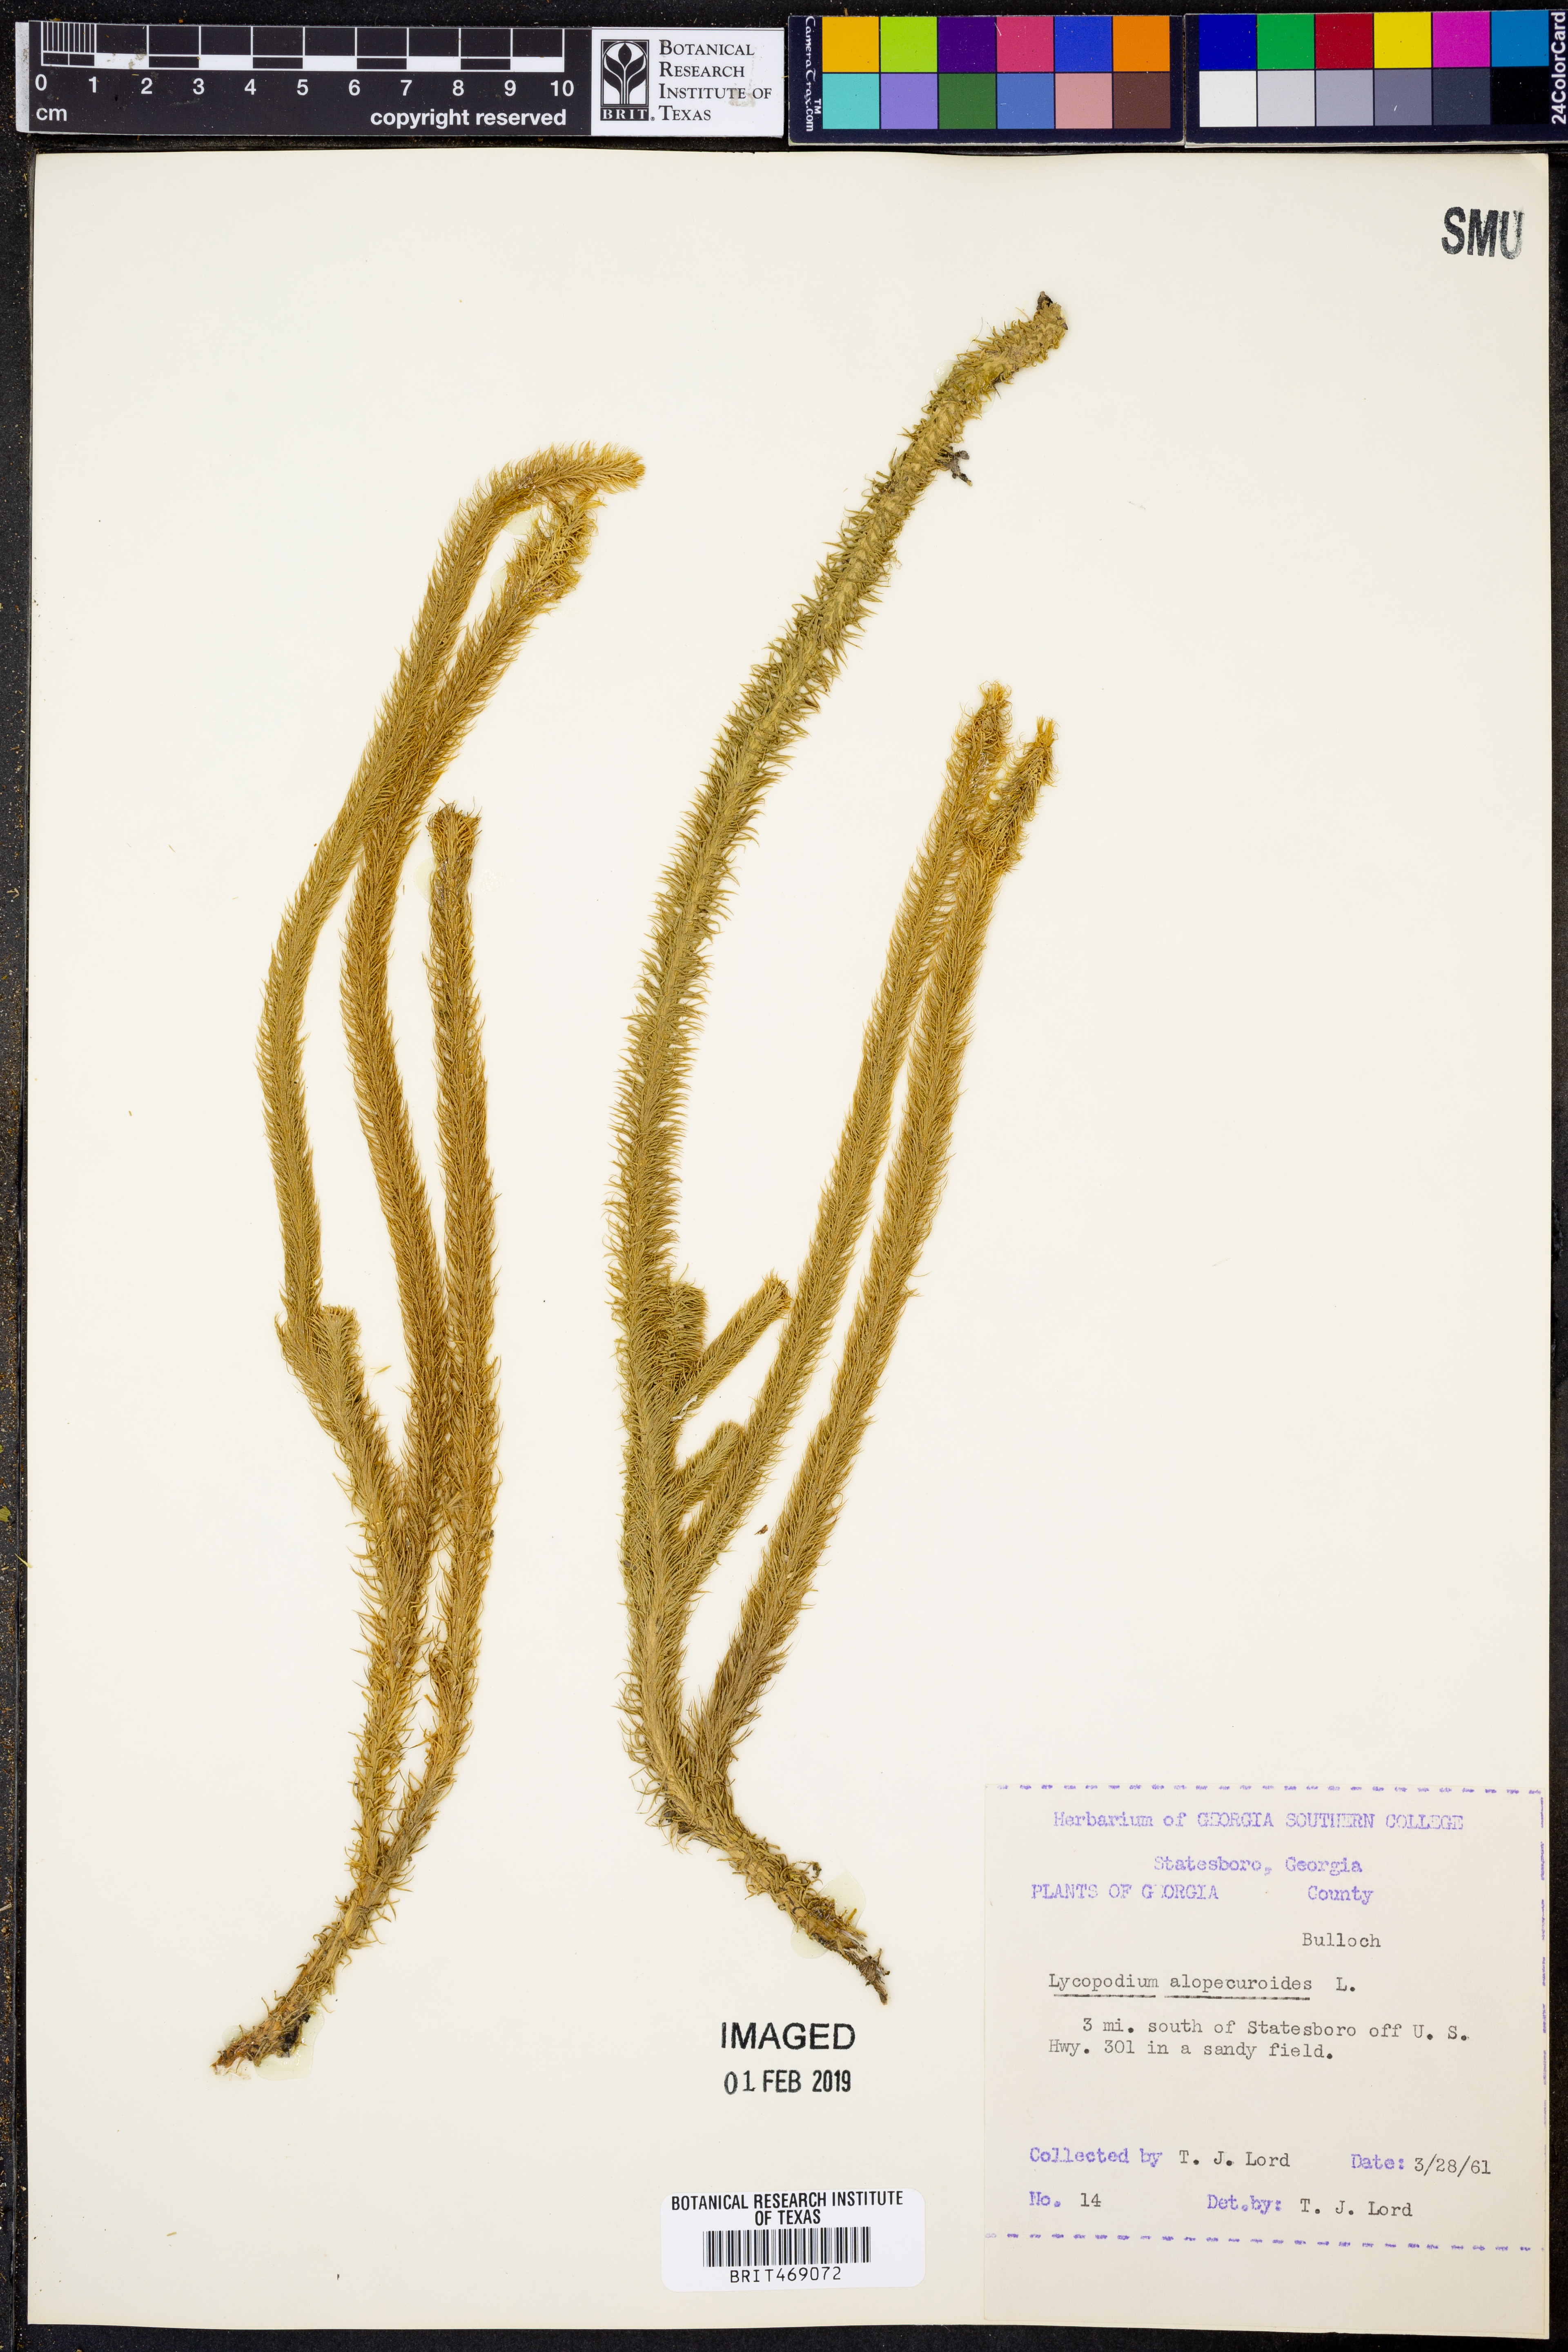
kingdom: Plantae
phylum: Tracheophyta
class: Lycopodiopsida
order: Lycopodiales
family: Lycopodiaceae
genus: Lycopodiella
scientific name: Lycopodiella alopecuroides
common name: Foxtail clubmoss
